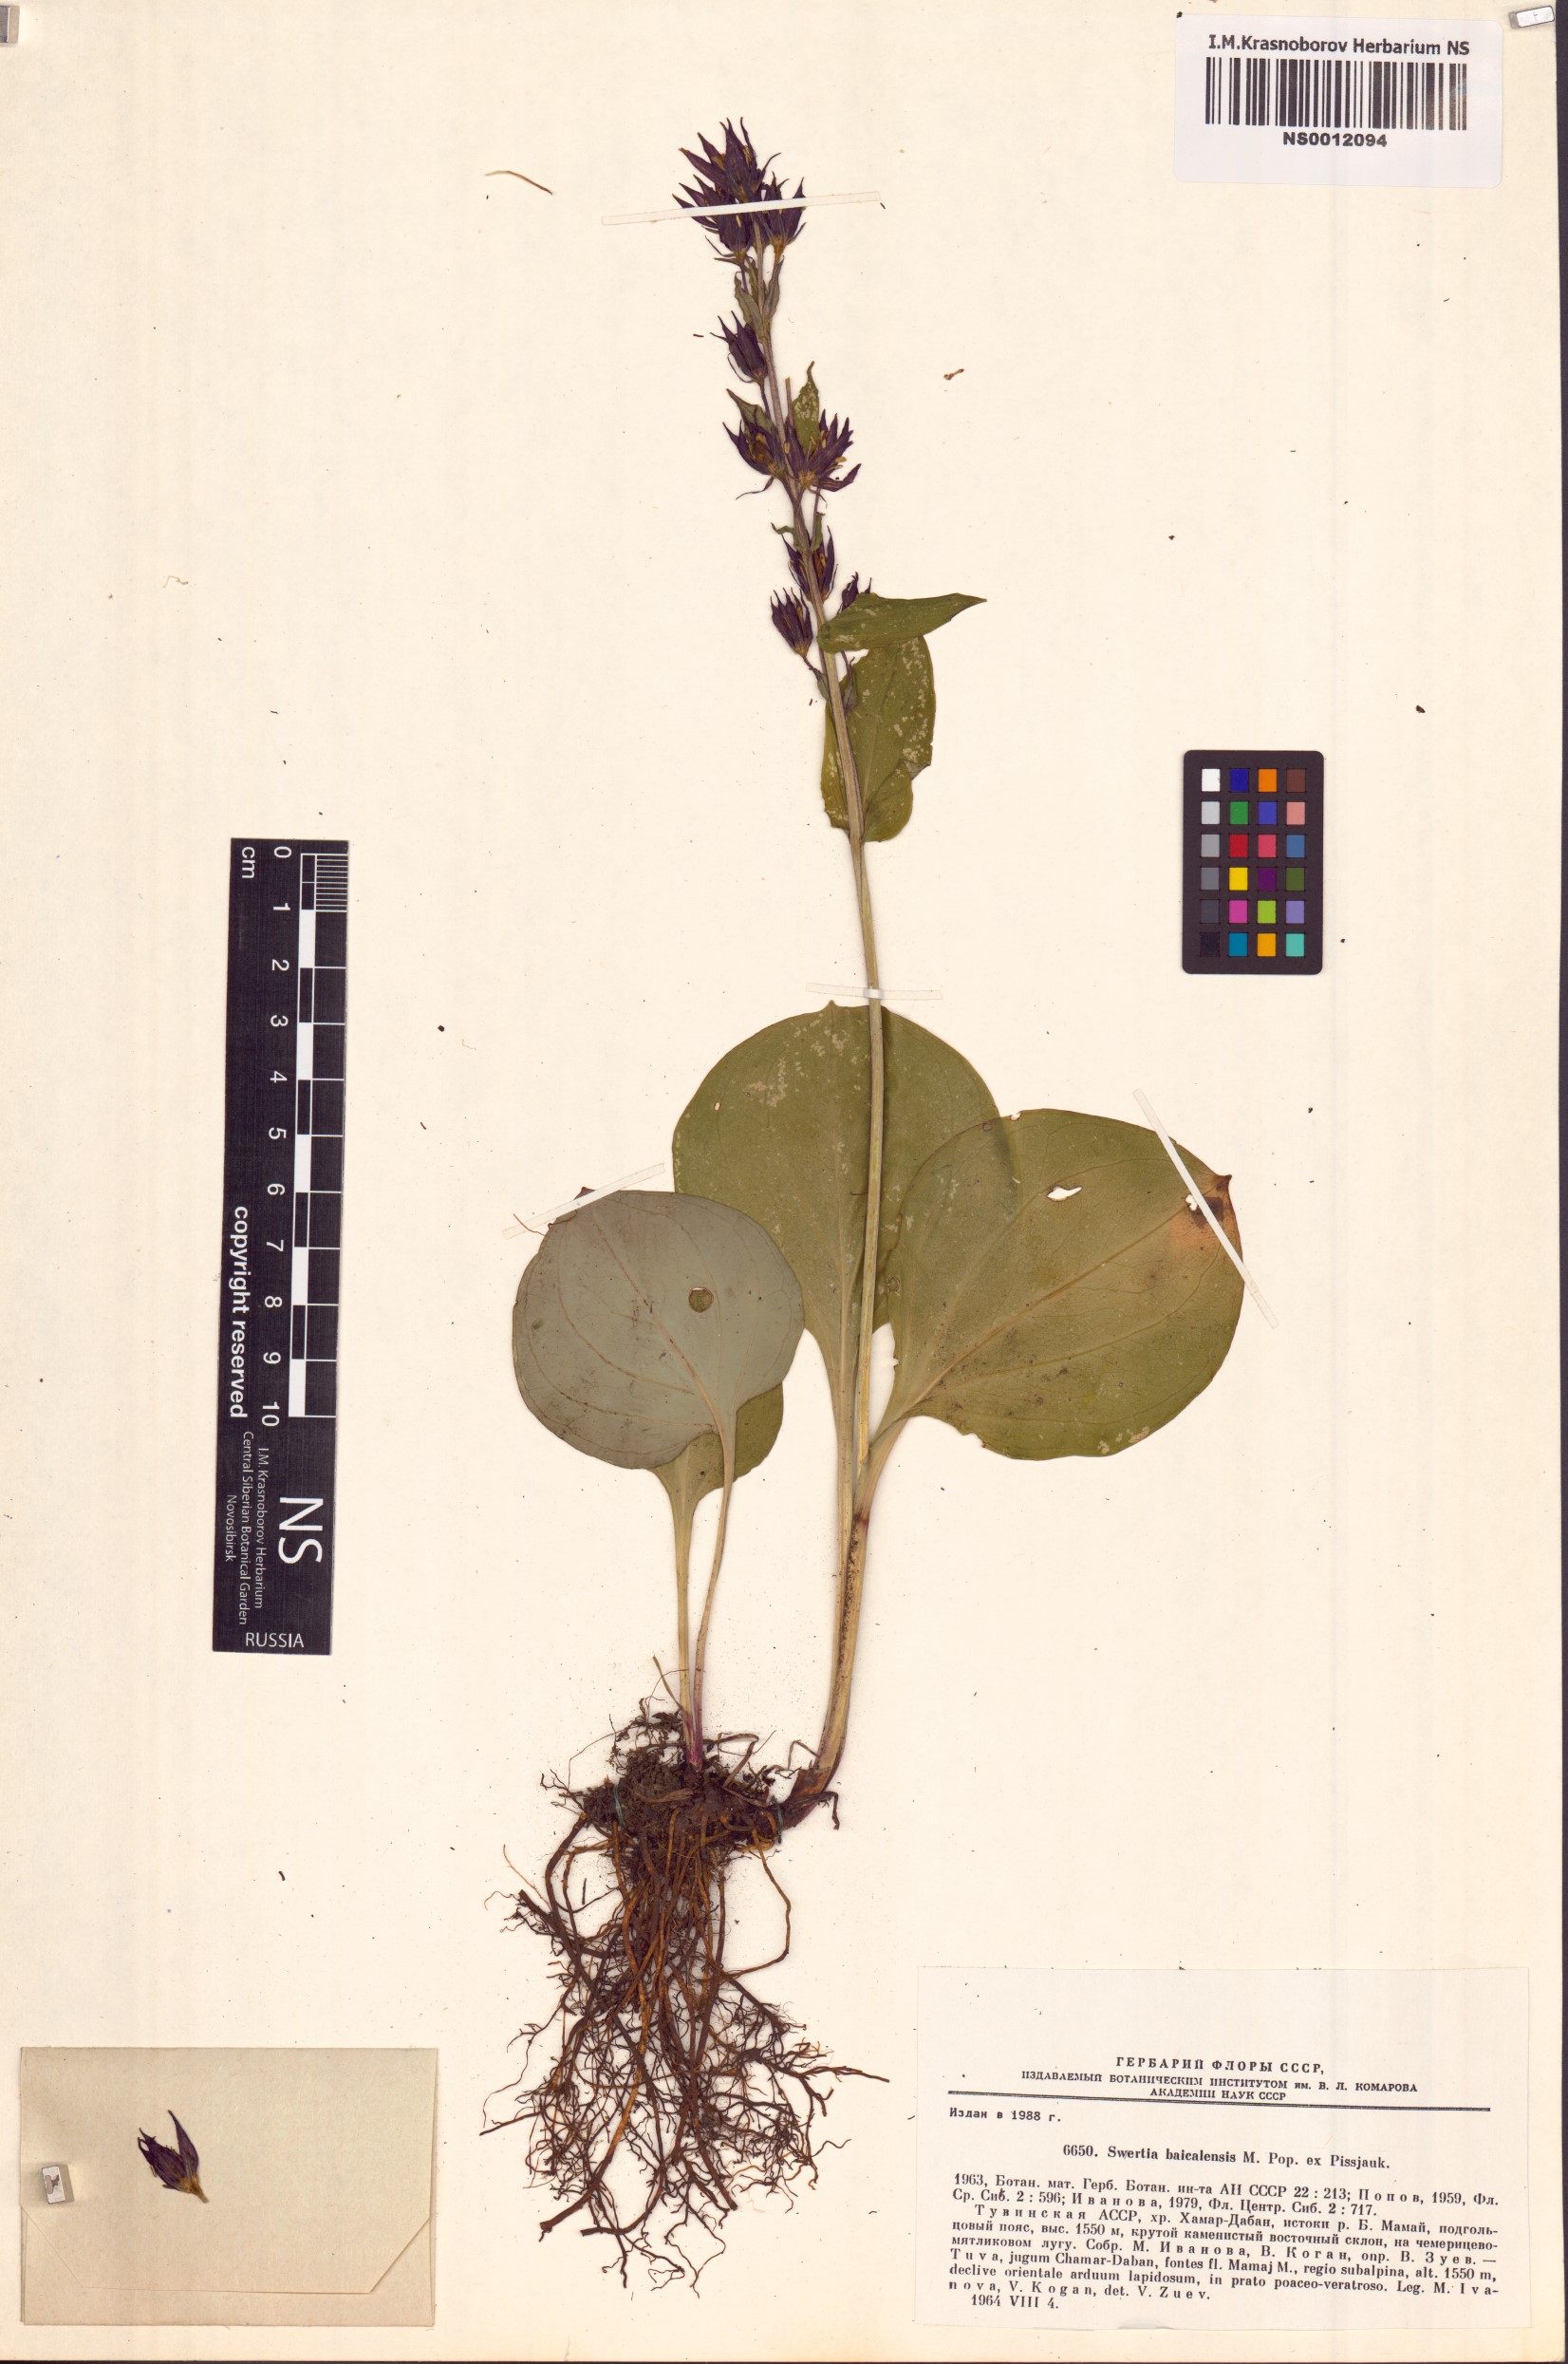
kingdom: Plantae
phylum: Tracheophyta
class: Magnoliopsida
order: Gentianales
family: Gentianaceae
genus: Swertia
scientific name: Swertia obtusa
